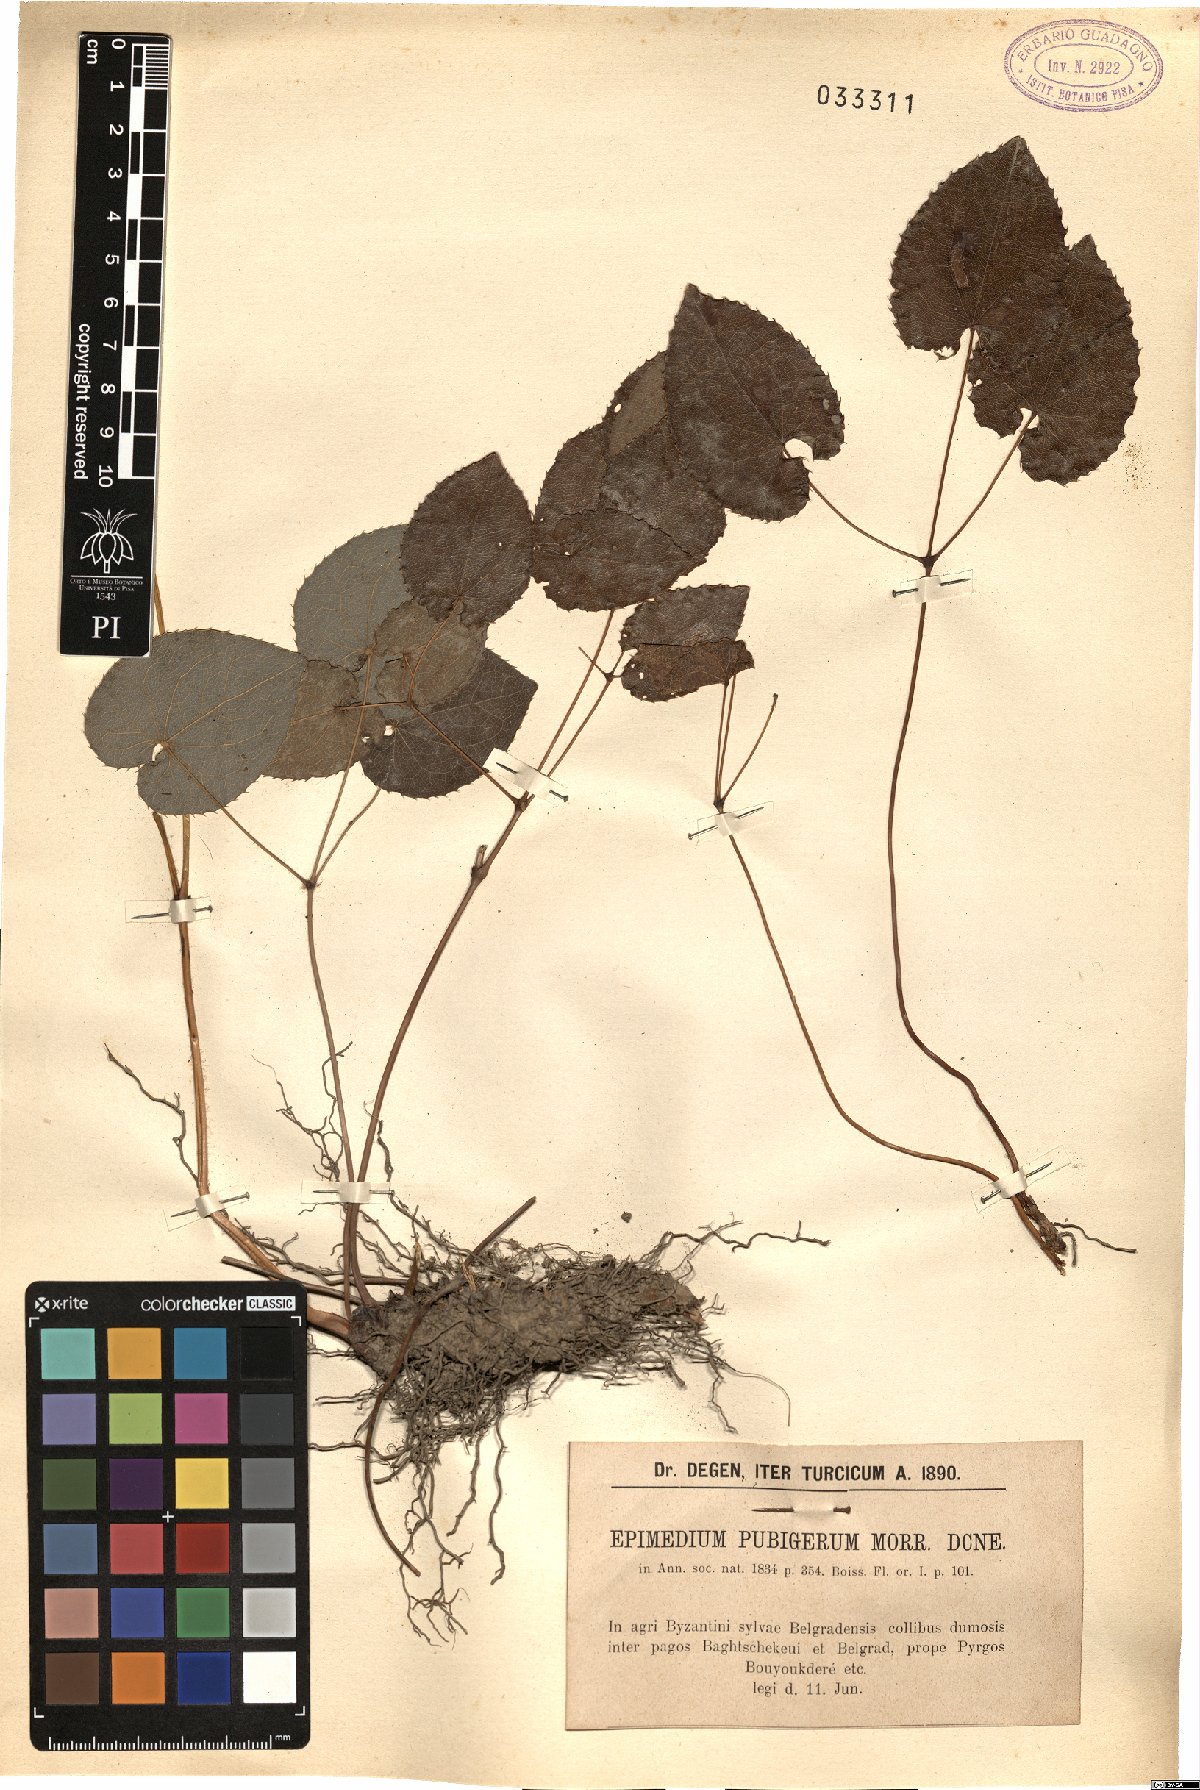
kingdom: Plantae
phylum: Tracheophyta
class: Magnoliopsida
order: Ranunculales
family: Berberidaceae
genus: Epimedium
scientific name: Epimedium pubigerum
